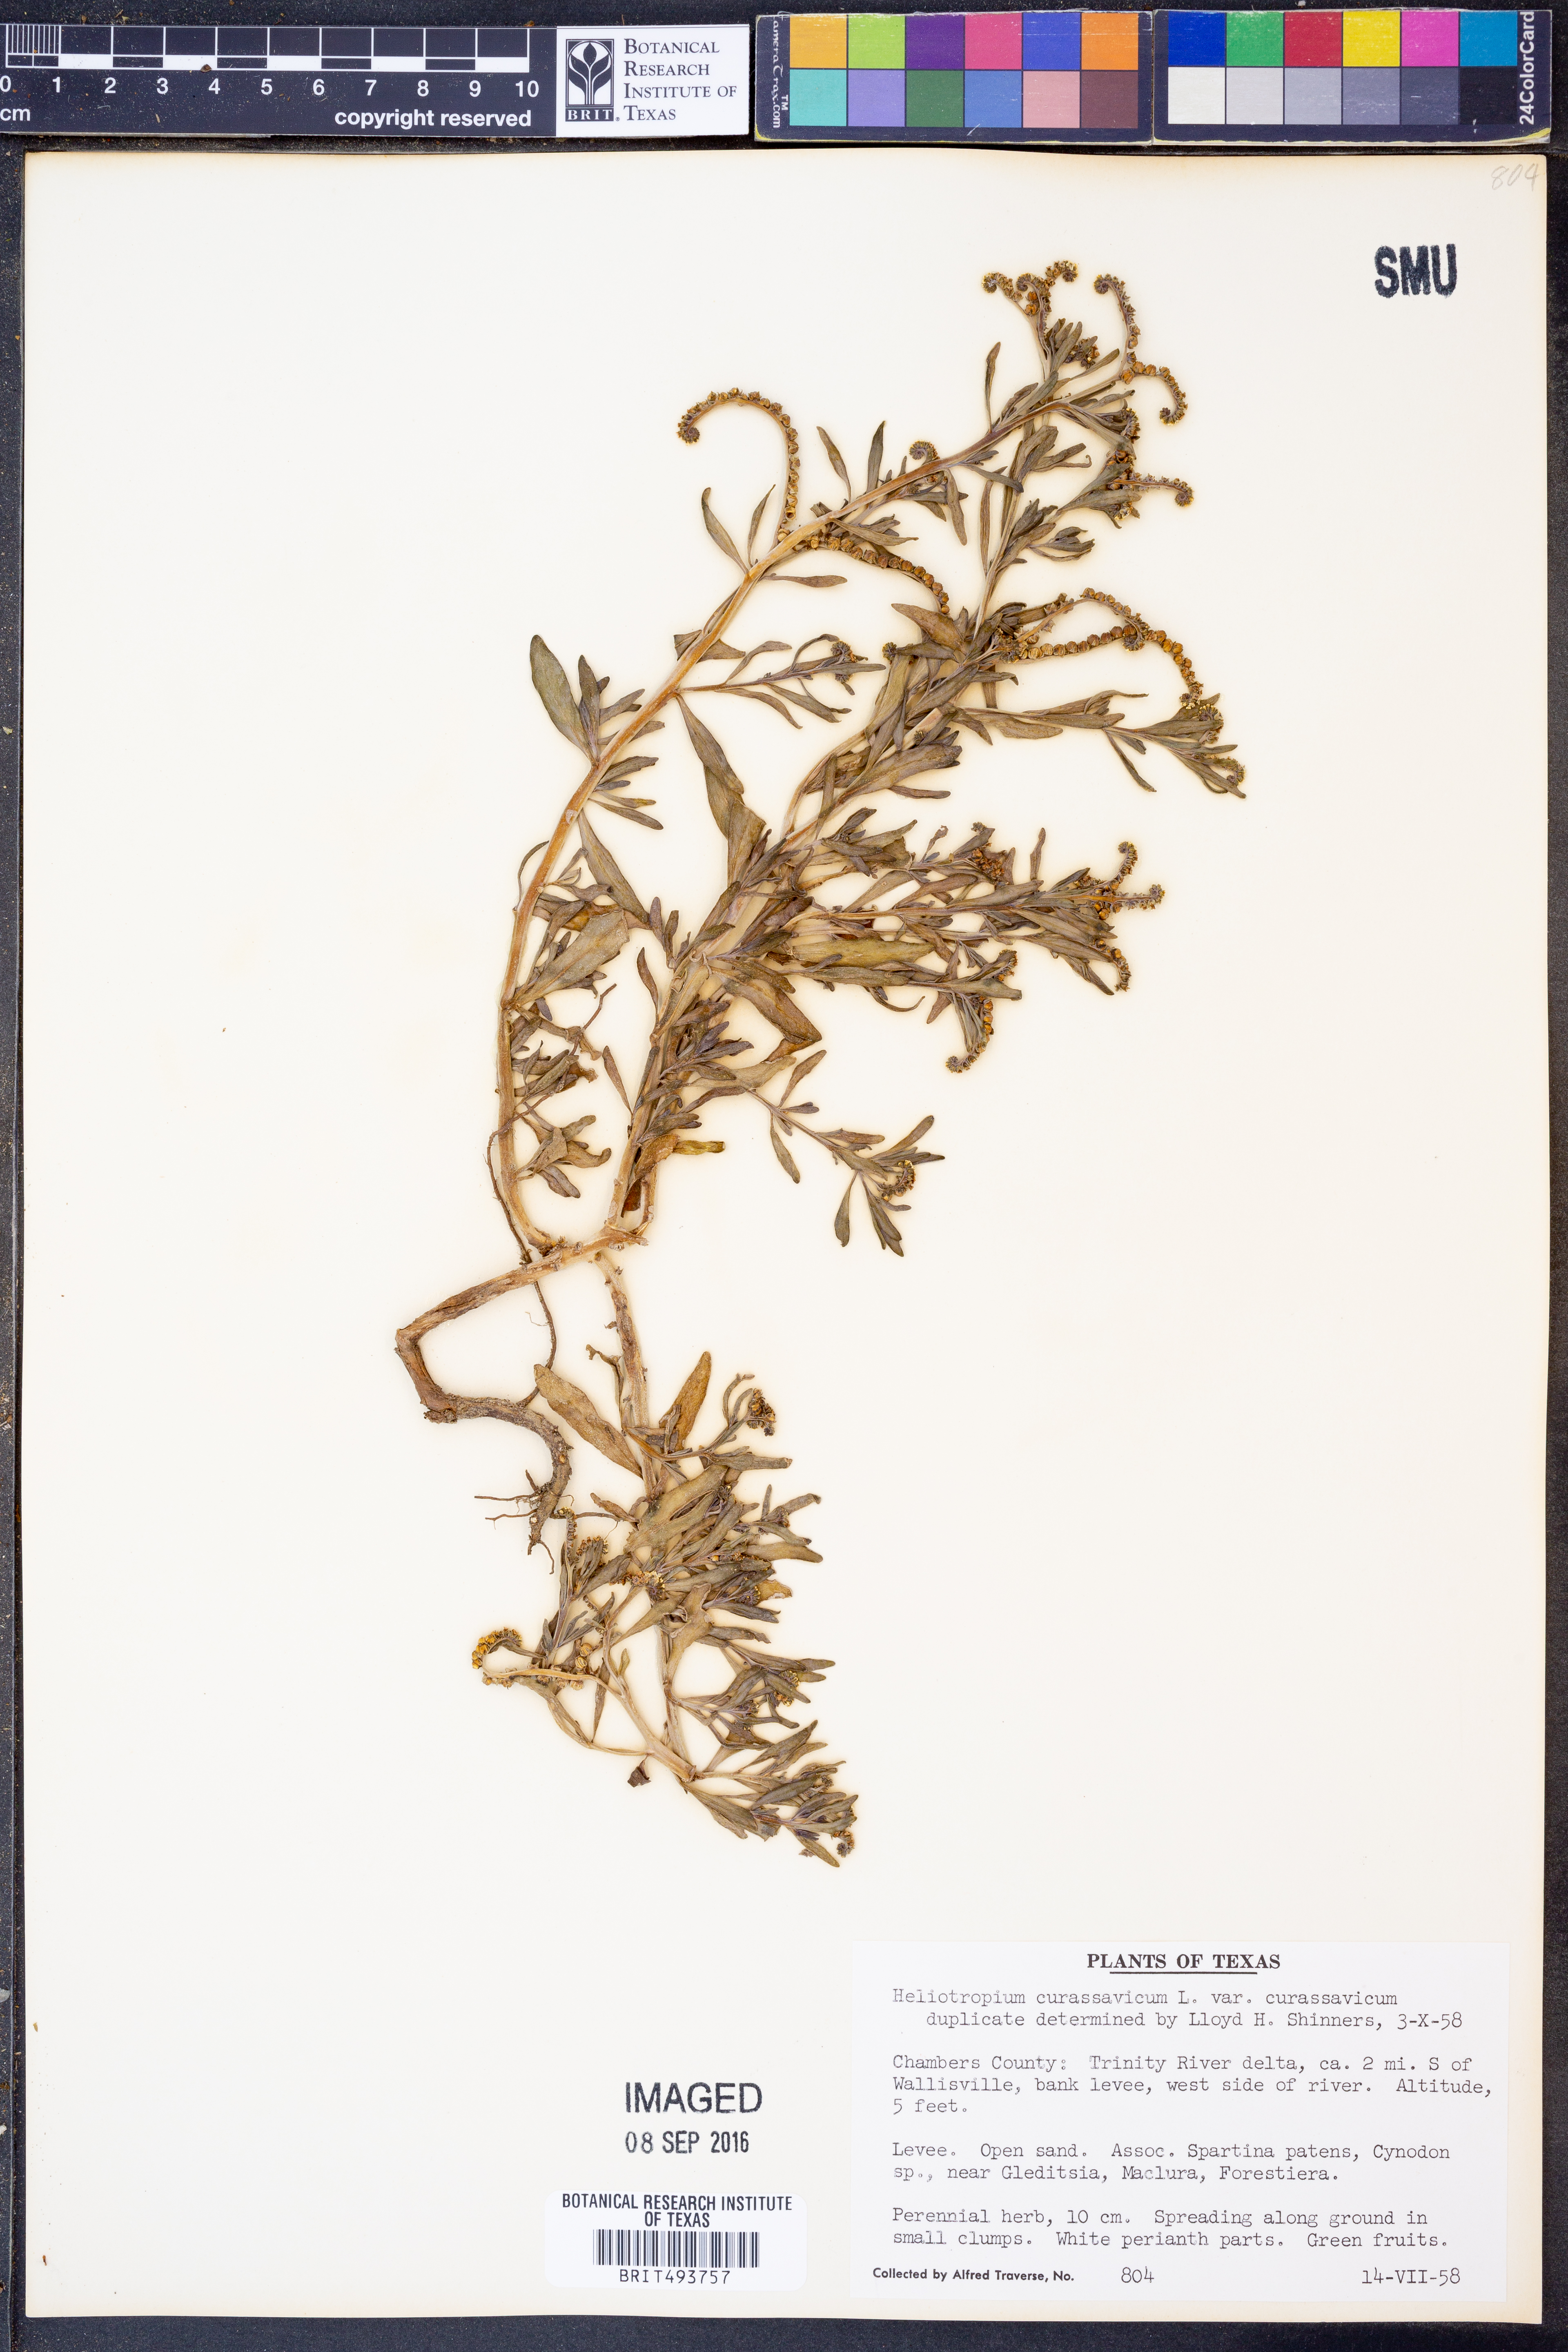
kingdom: Plantae
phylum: Tracheophyta
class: Magnoliopsida
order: Boraginales
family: Heliotropiaceae
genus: Heliotropium
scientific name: Heliotropium curassavicum
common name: Seaside heliotrope
